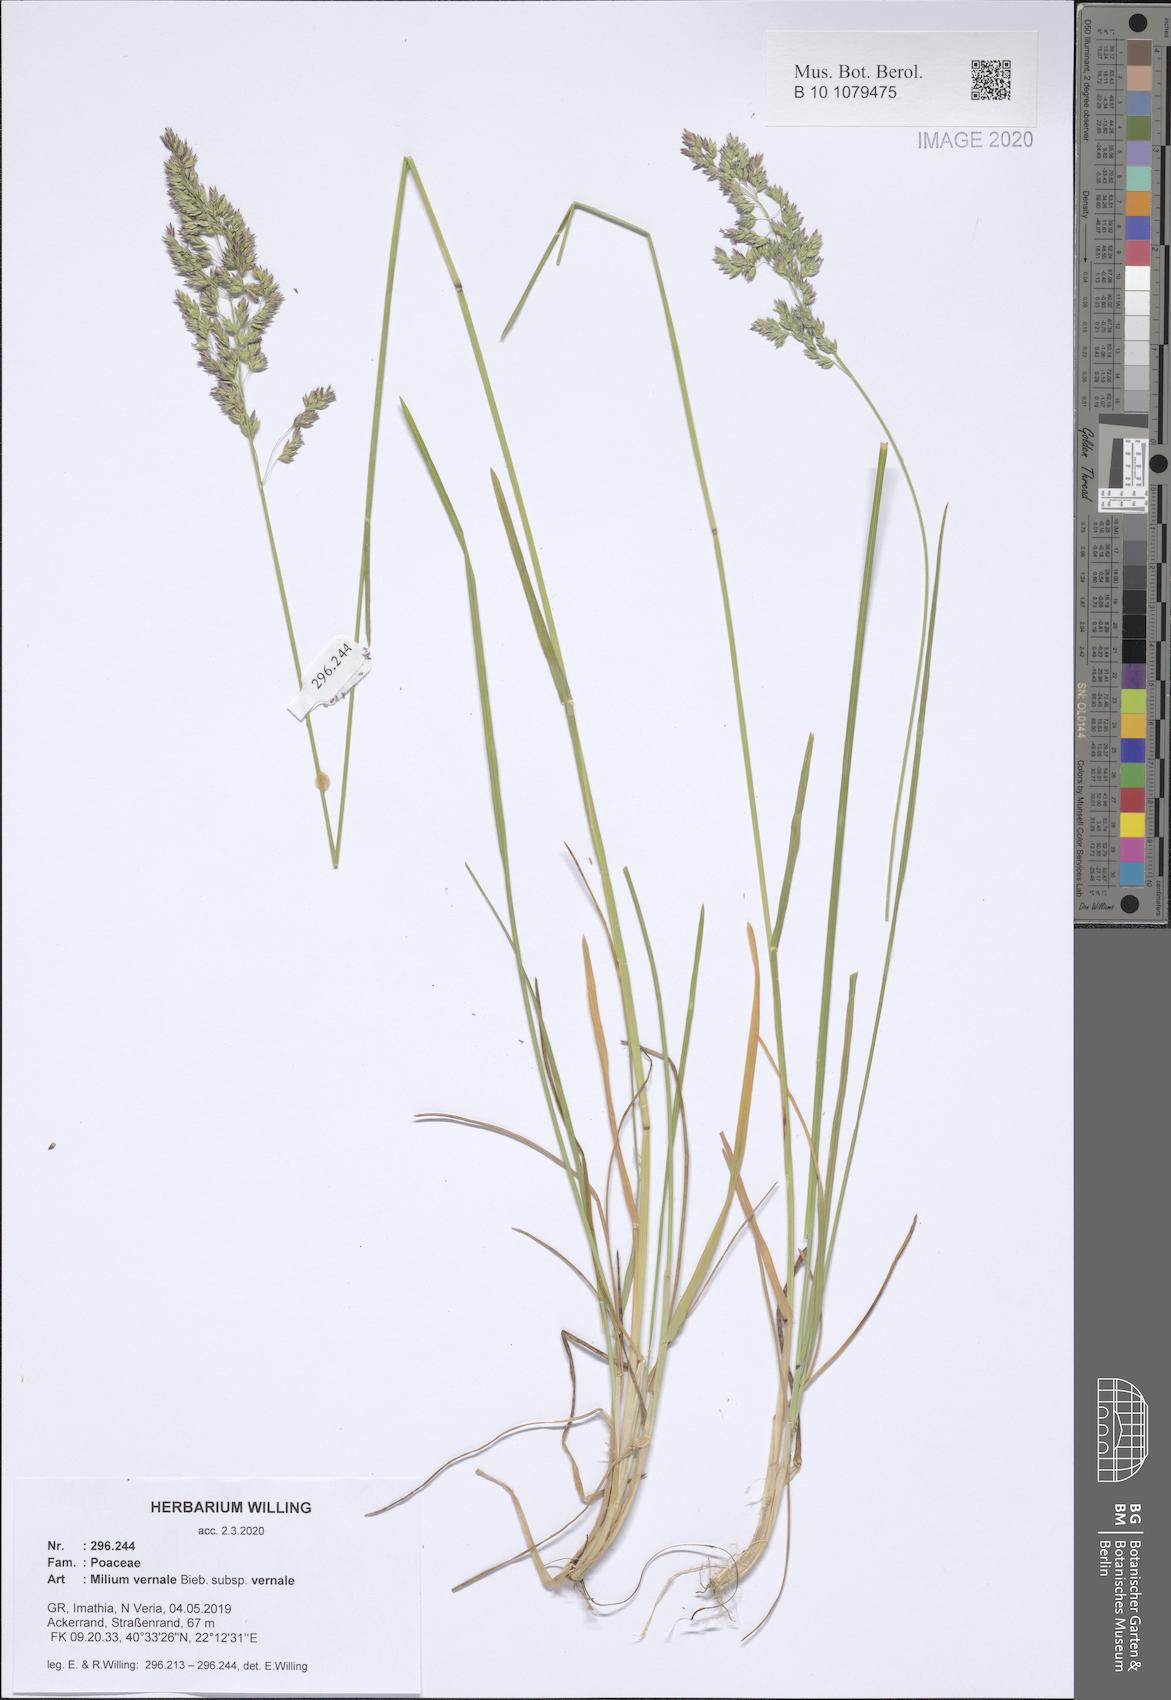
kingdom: Plantae
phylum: Tracheophyta
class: Liliopsida
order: Poales
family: Poaceae
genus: Milium
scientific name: Milium vernale
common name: Early millet
